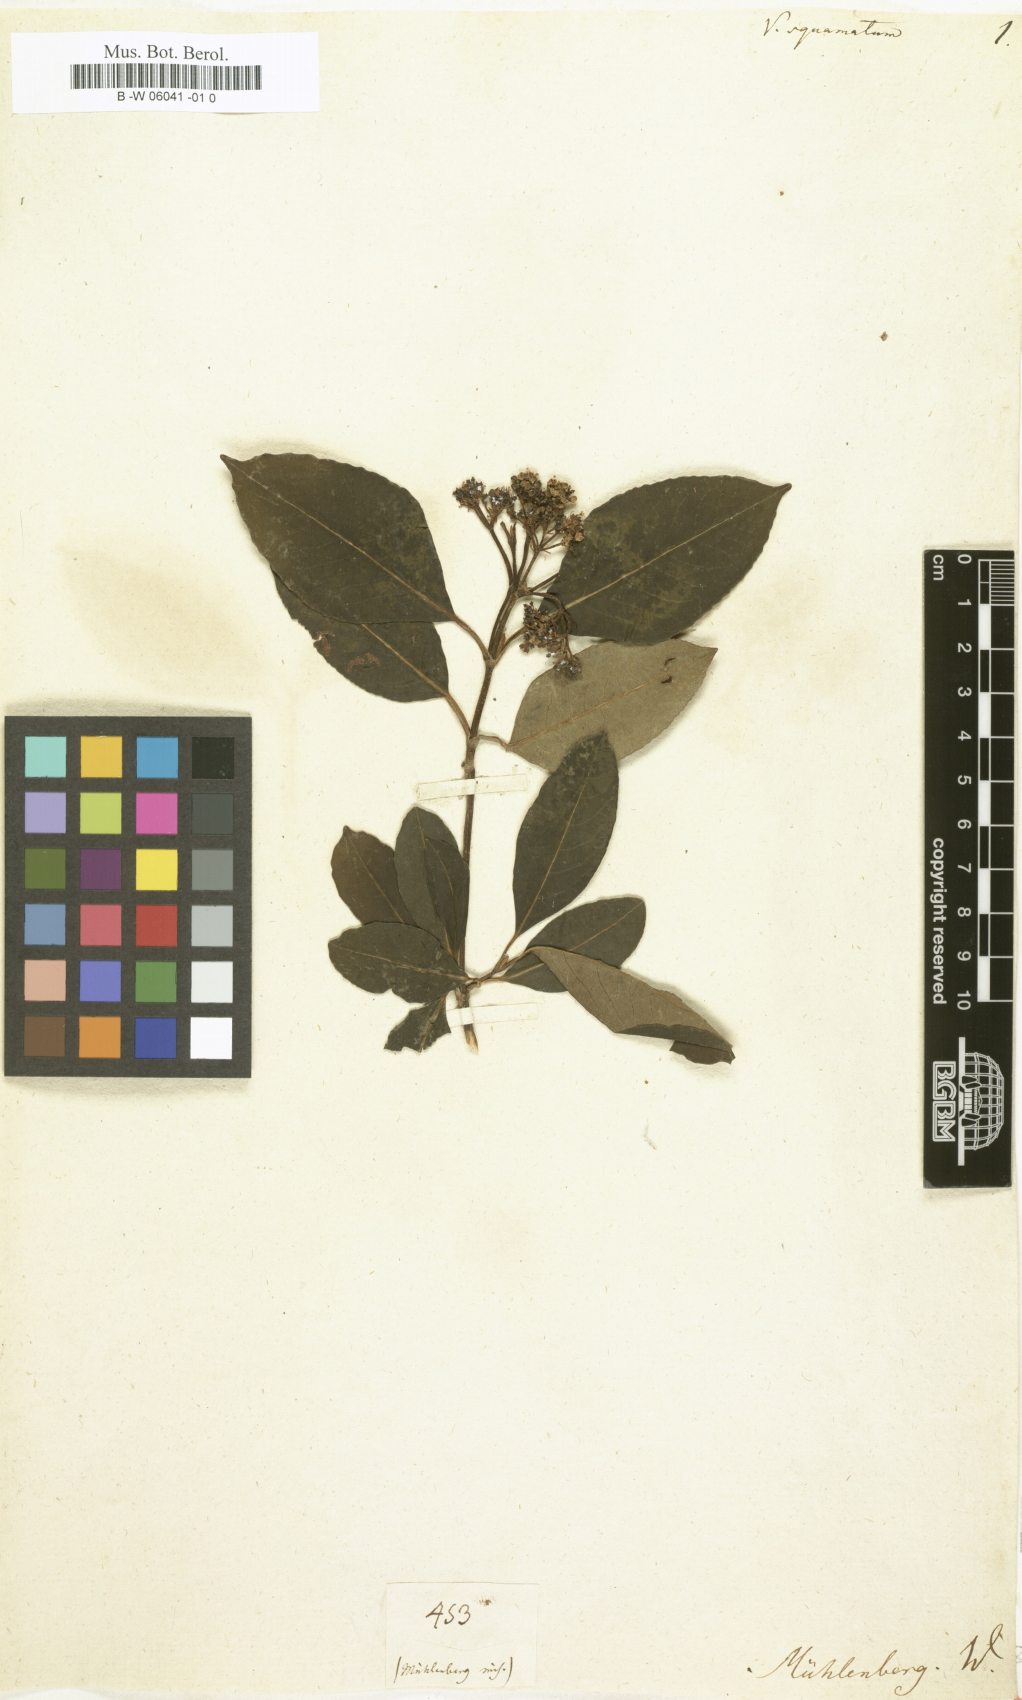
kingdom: Plantae
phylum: Tracheophyta
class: Magnoliopsida
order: Dipsacales
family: Viburnaceae
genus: Viburnum
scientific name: Viburnum cassinoides
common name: Swamp haw
